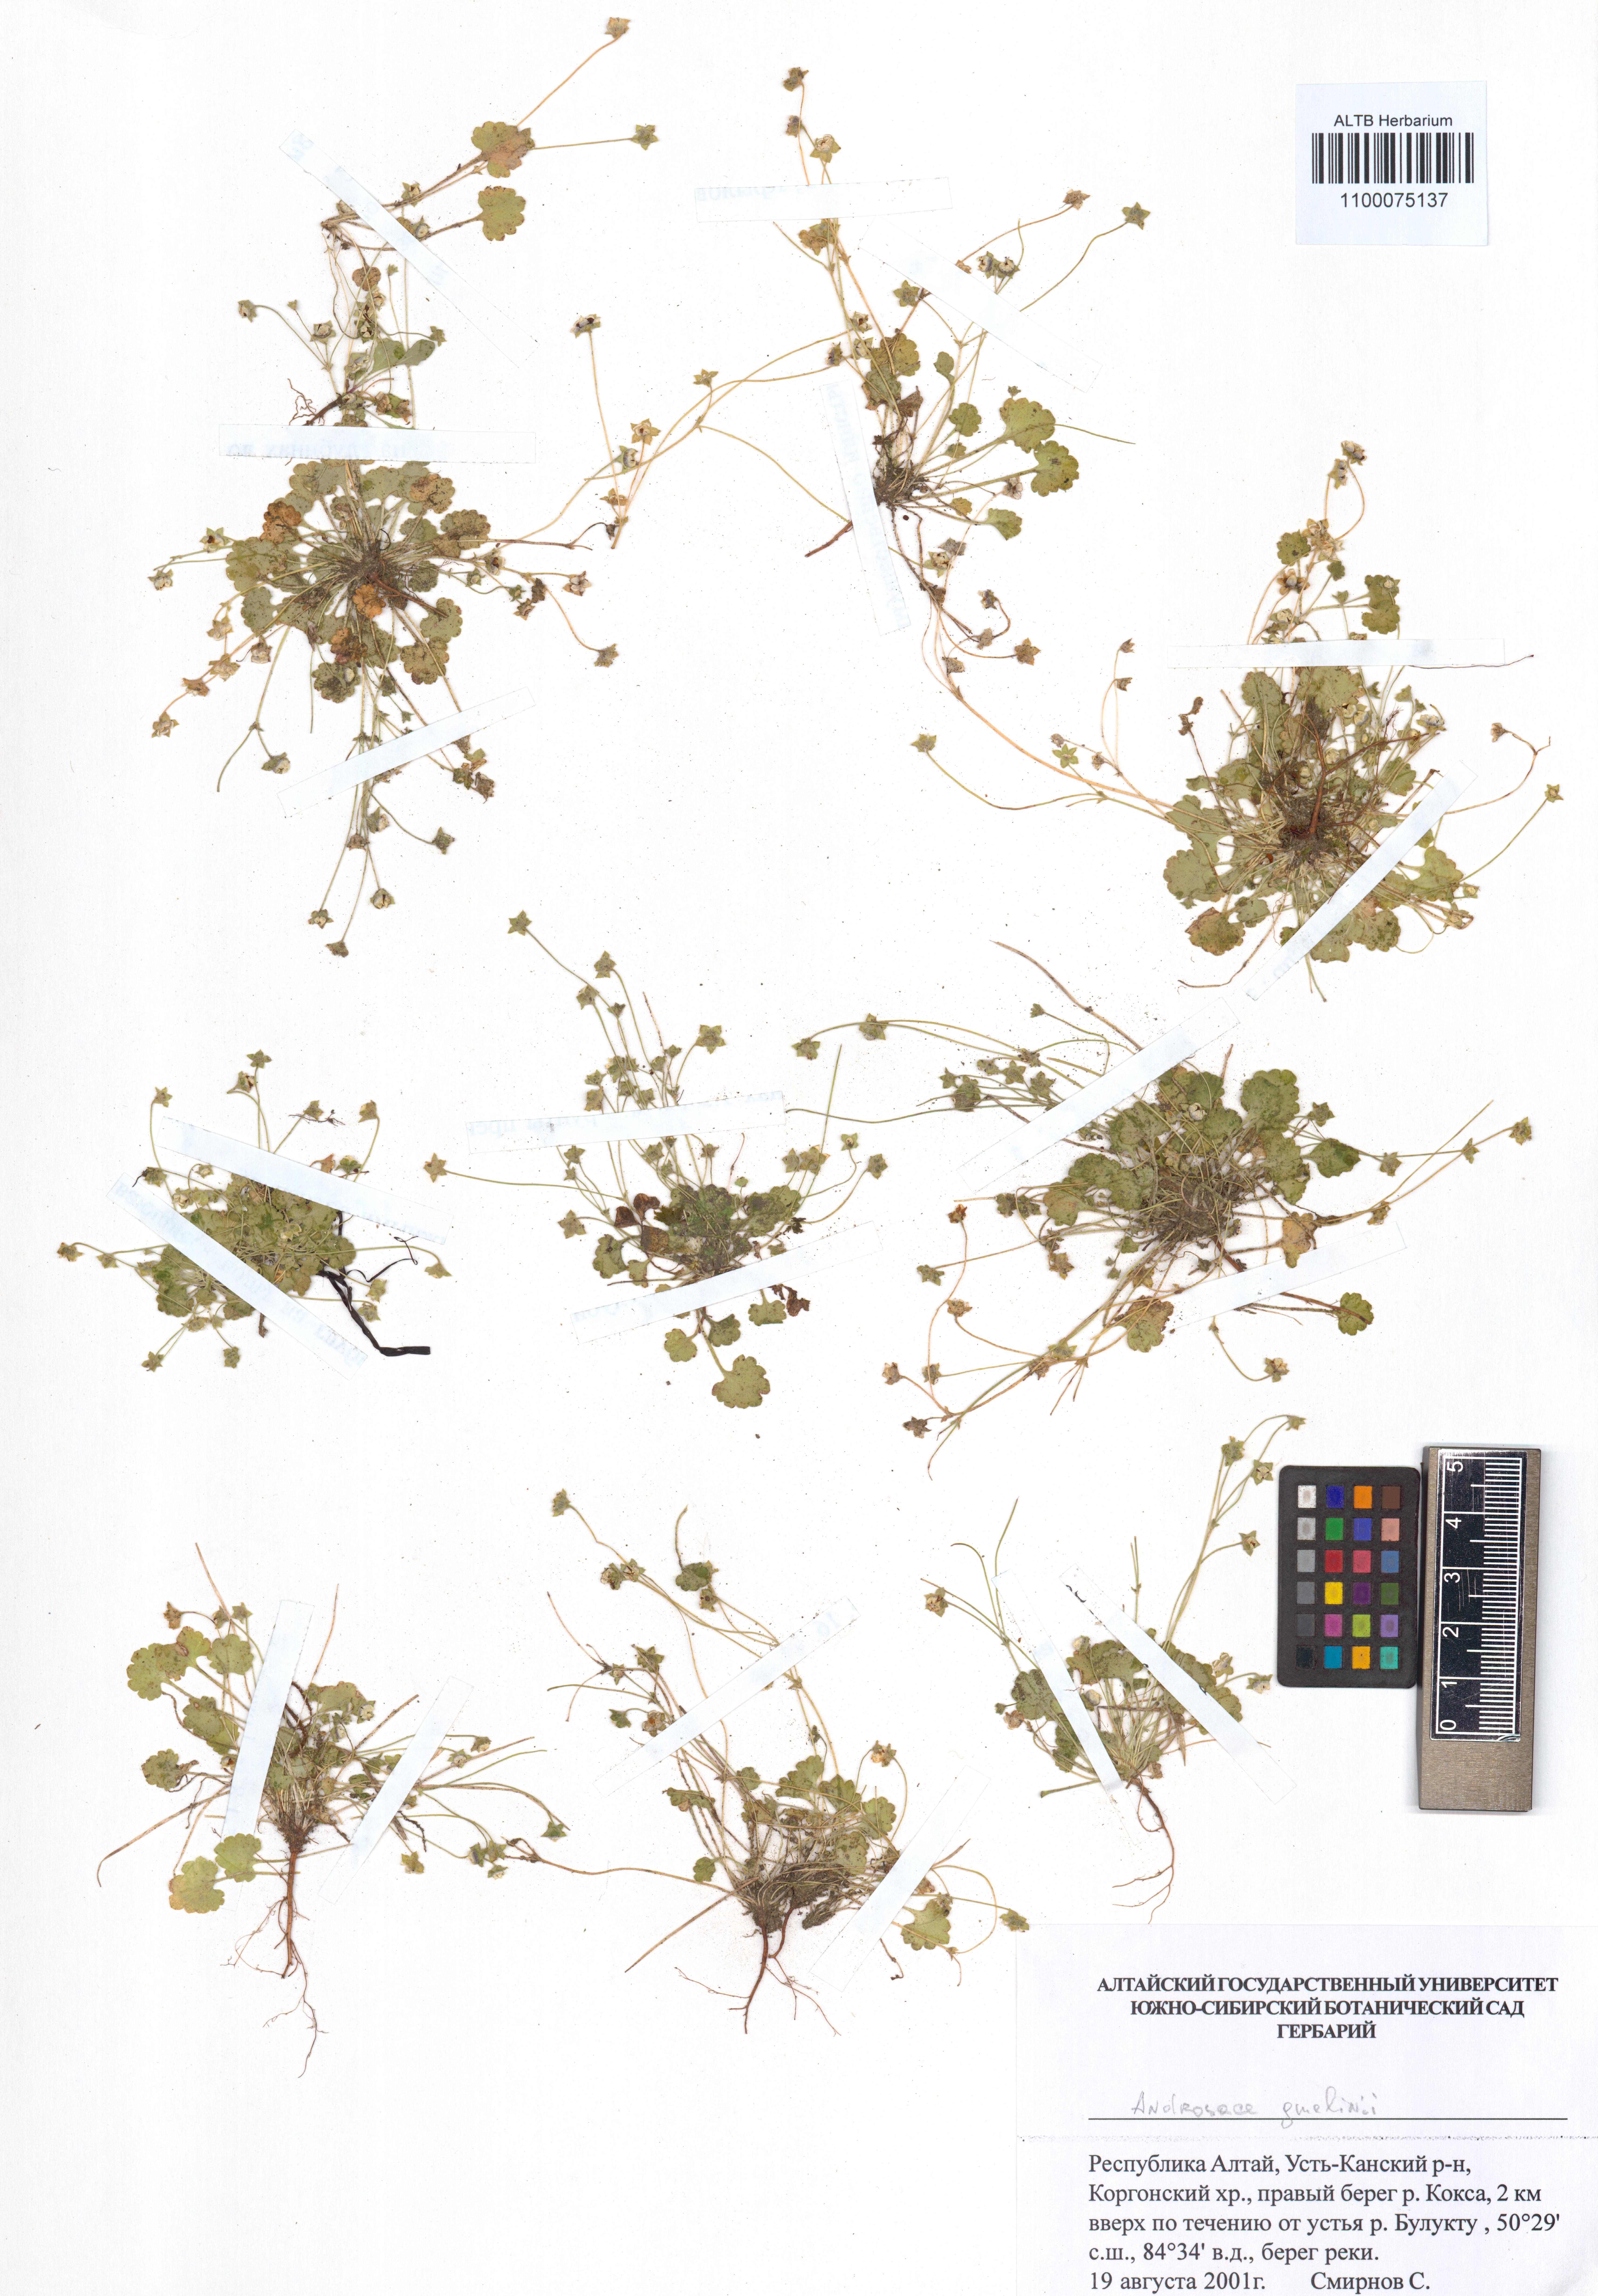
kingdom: Plantae
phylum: Tracheophyta
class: Magnoliopsida
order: Ericales
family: Primulaceae
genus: Androsace
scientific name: Androsace gmelinii
